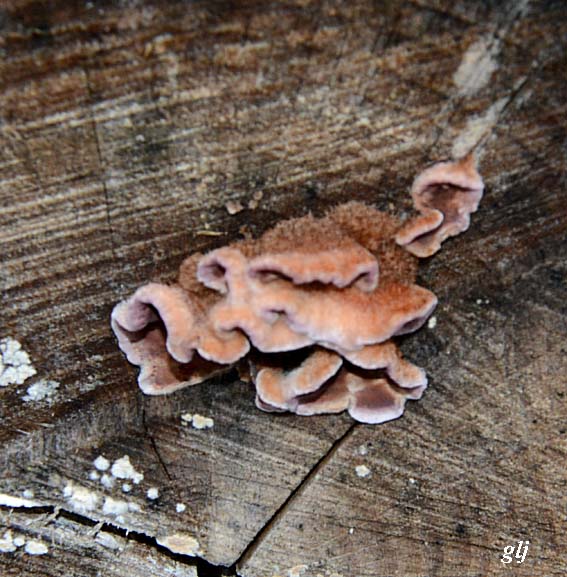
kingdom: Fungi
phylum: Basidiomycota
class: Agaricomycetes
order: Agaricales
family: Cyphellaceae
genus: Chondrostereum
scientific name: Chondrostereum purpureum
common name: purpurlædersvamp
